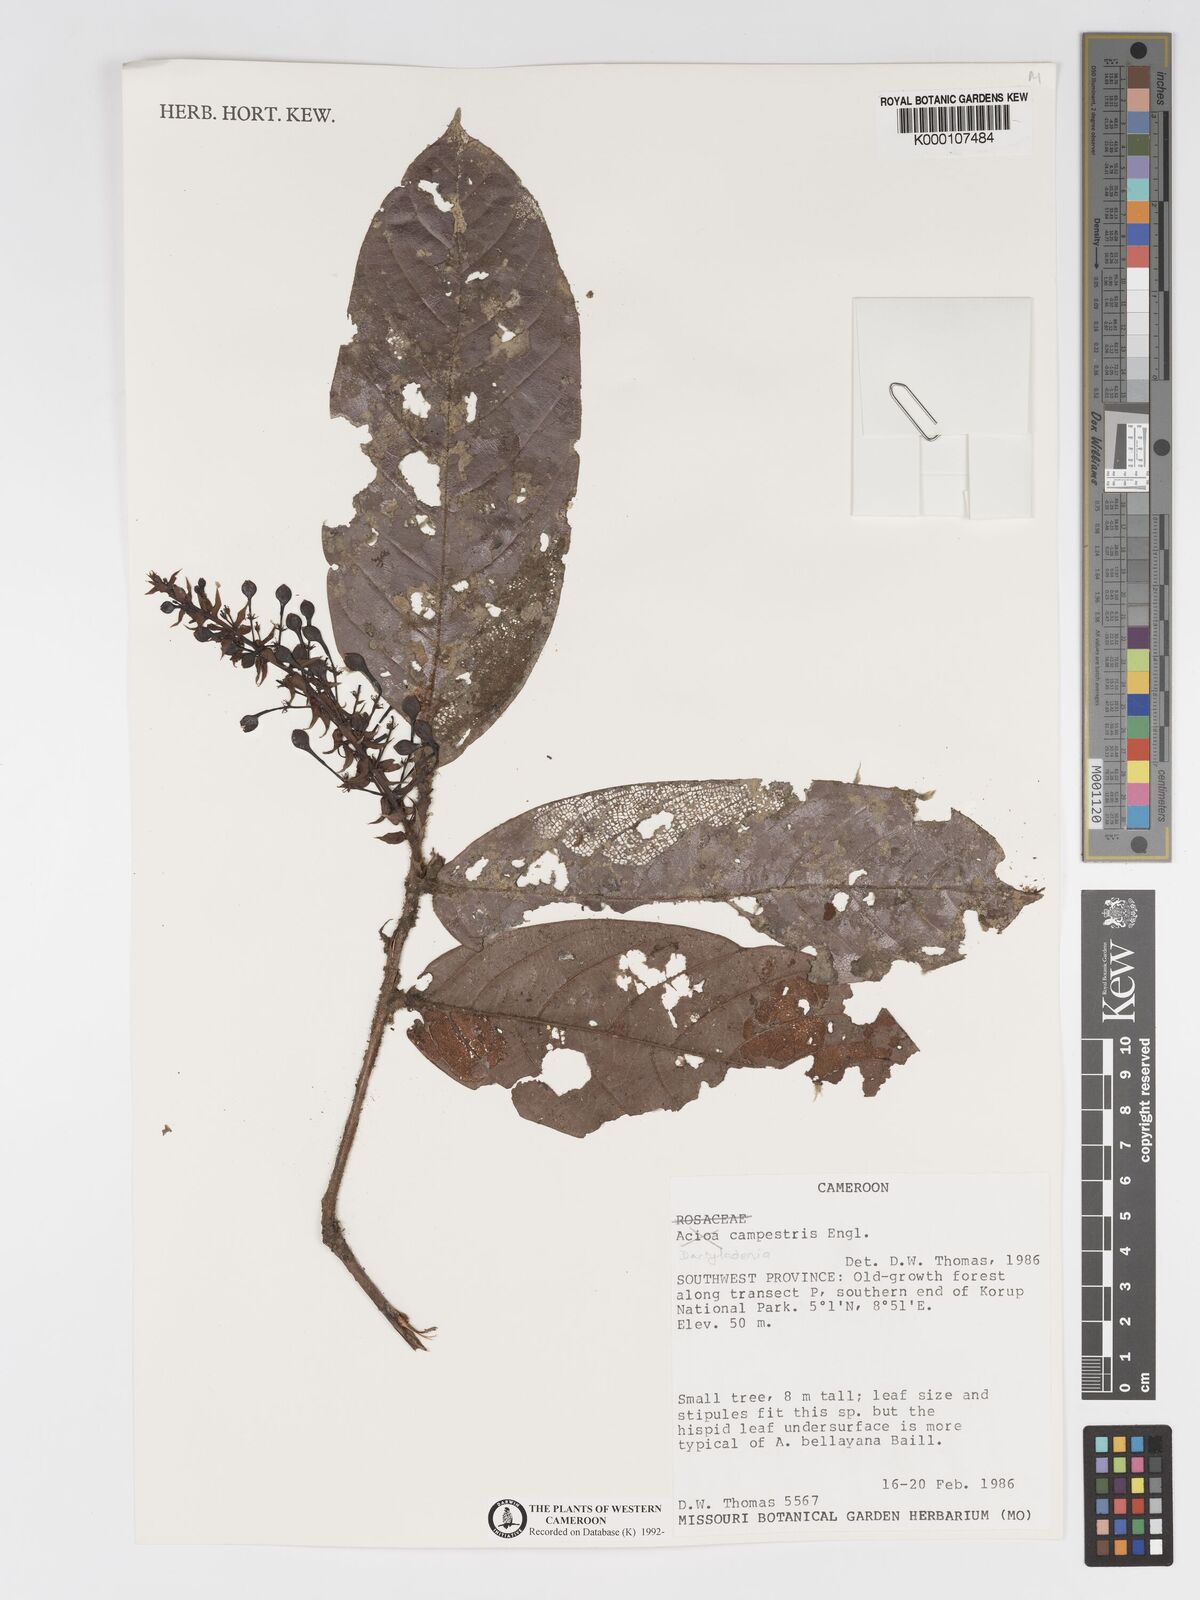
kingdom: Plantae
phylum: Tracheophyta
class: Magnoliopsida
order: Malpighiales
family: Chrysobalanaceae
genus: Dactyladenia
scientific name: Dactyladenia campestris
